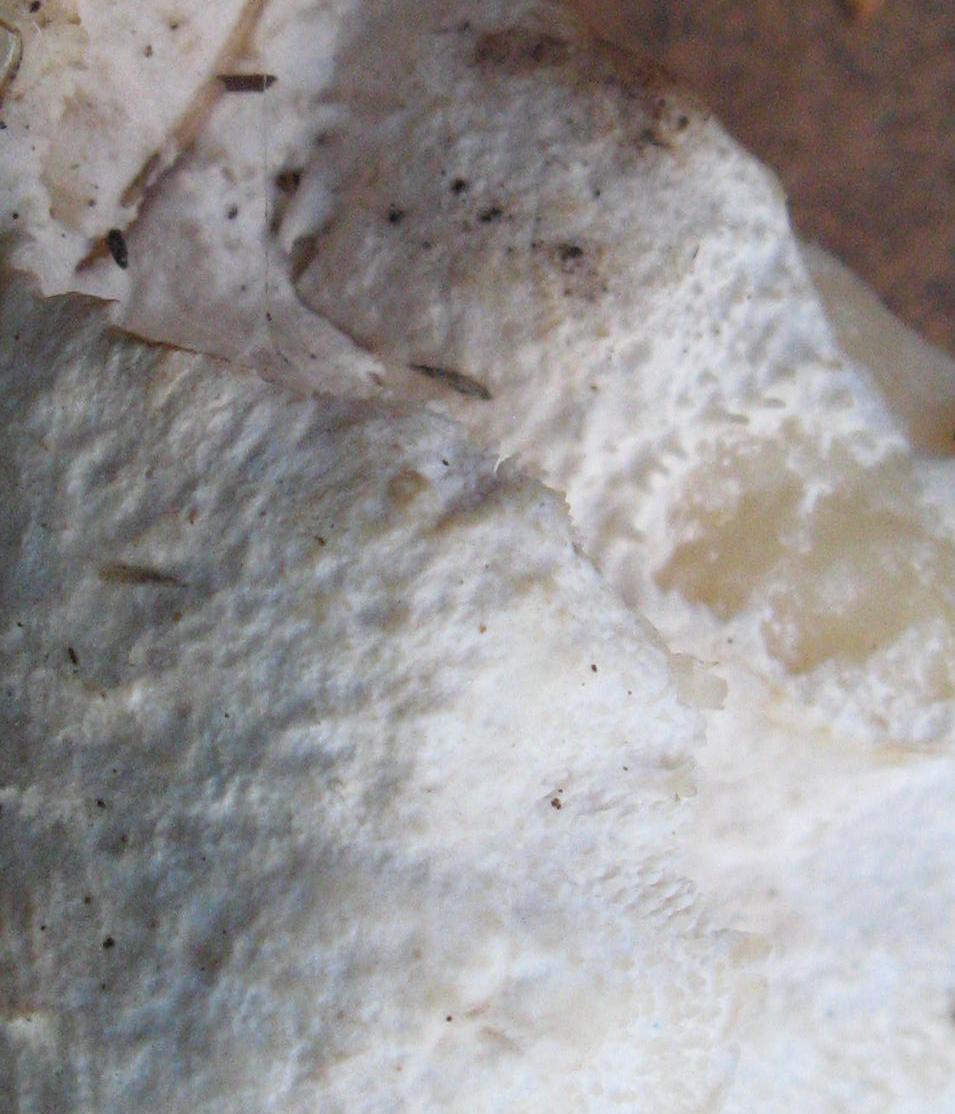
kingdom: Fungi
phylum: Basidiomycota
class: Agaricomycetes
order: Russulales
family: Hericiaceae
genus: Hericium
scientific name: Hericium cirrhatum
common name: børstepigsvamp
